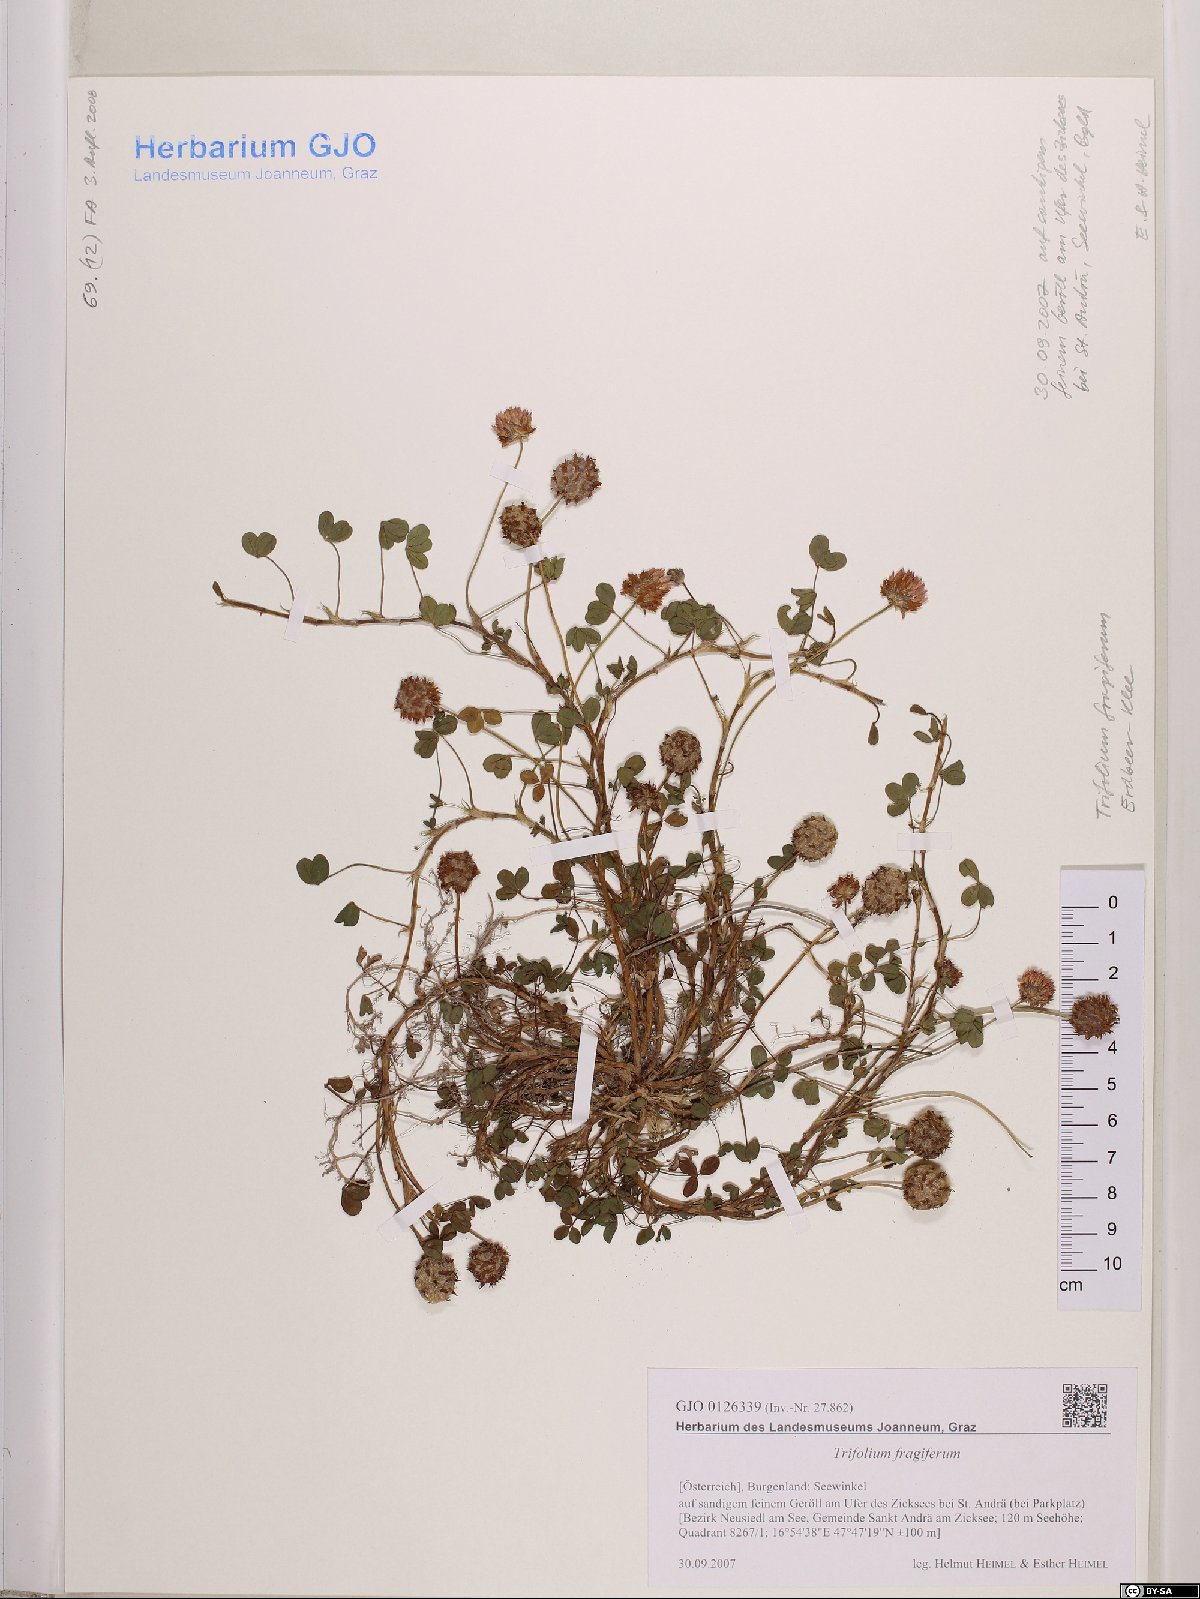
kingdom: Plantae
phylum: Tracheophyta
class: Magnoliopsida
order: Fabales
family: Fabaceae
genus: Trifolium
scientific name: Trifolium fragiferum
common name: Strawberry clover
